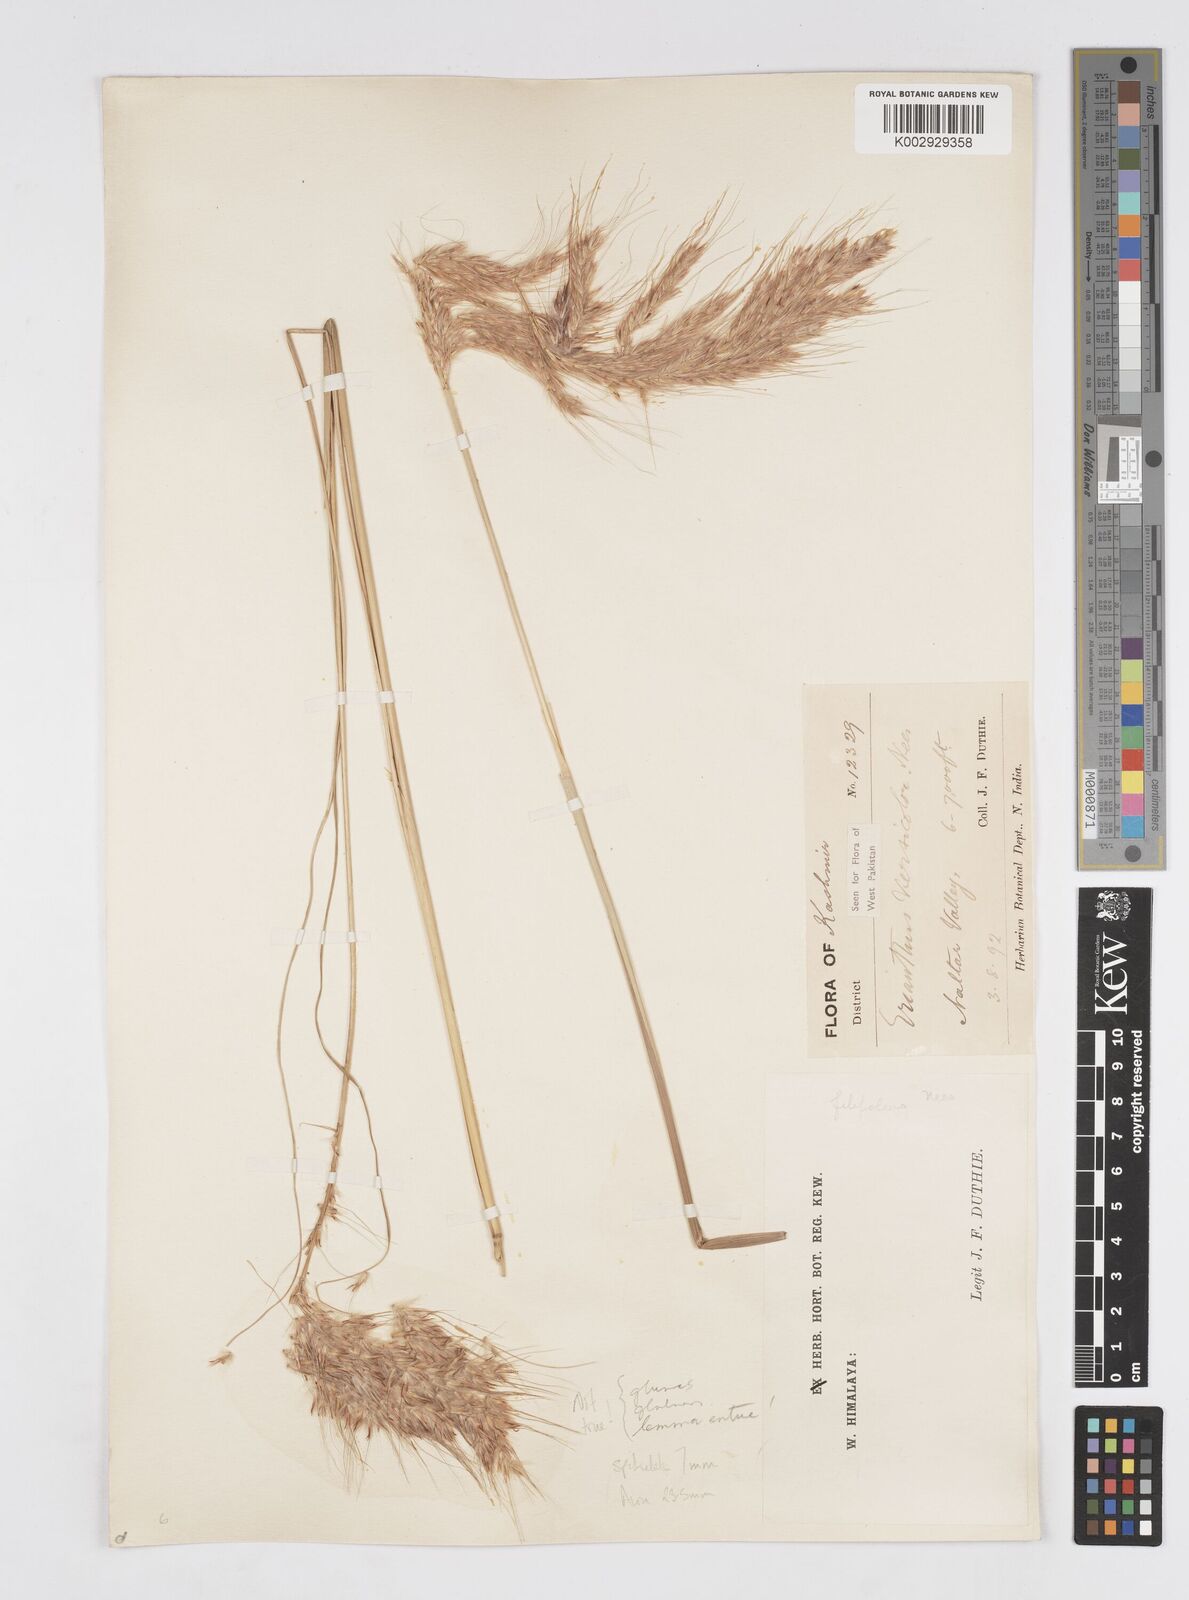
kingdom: Plantae
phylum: Tracheophyta
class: Liliopsida
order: Poales
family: Poaceae
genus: Saccharum
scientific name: Saccharum filifolium
